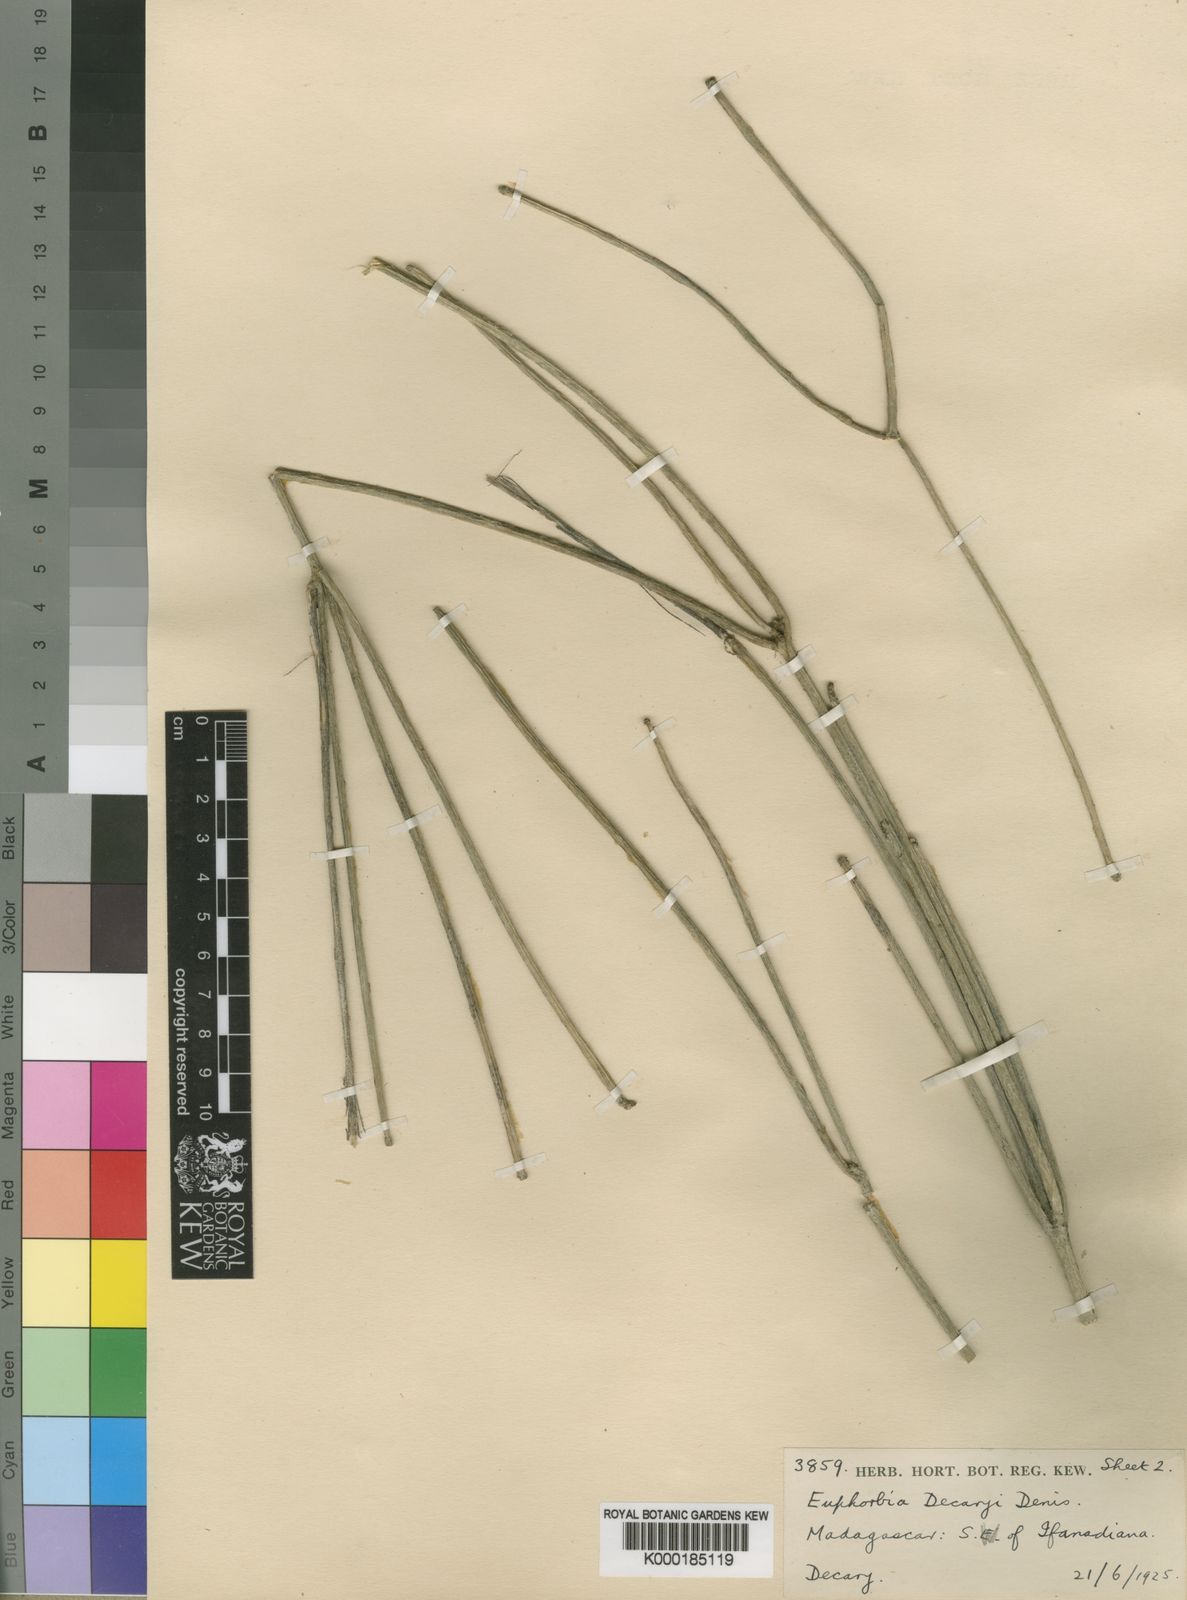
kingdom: Plantae
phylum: Tracheophyta
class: Magnoliopsida
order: Malpighiales
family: Euphorbiaceae
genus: Euphorbia
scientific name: Euphorbia rangovalensis
